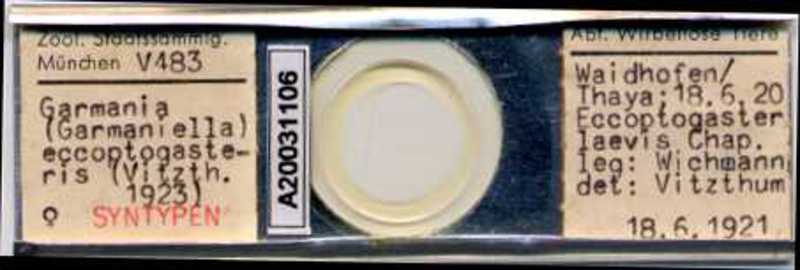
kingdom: Animalia
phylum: Arthropoda
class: Arachnida
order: Mesostigmata
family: Melicharidae
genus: Proctolaelaps
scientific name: Proctolaelaps eccoptogasteris
